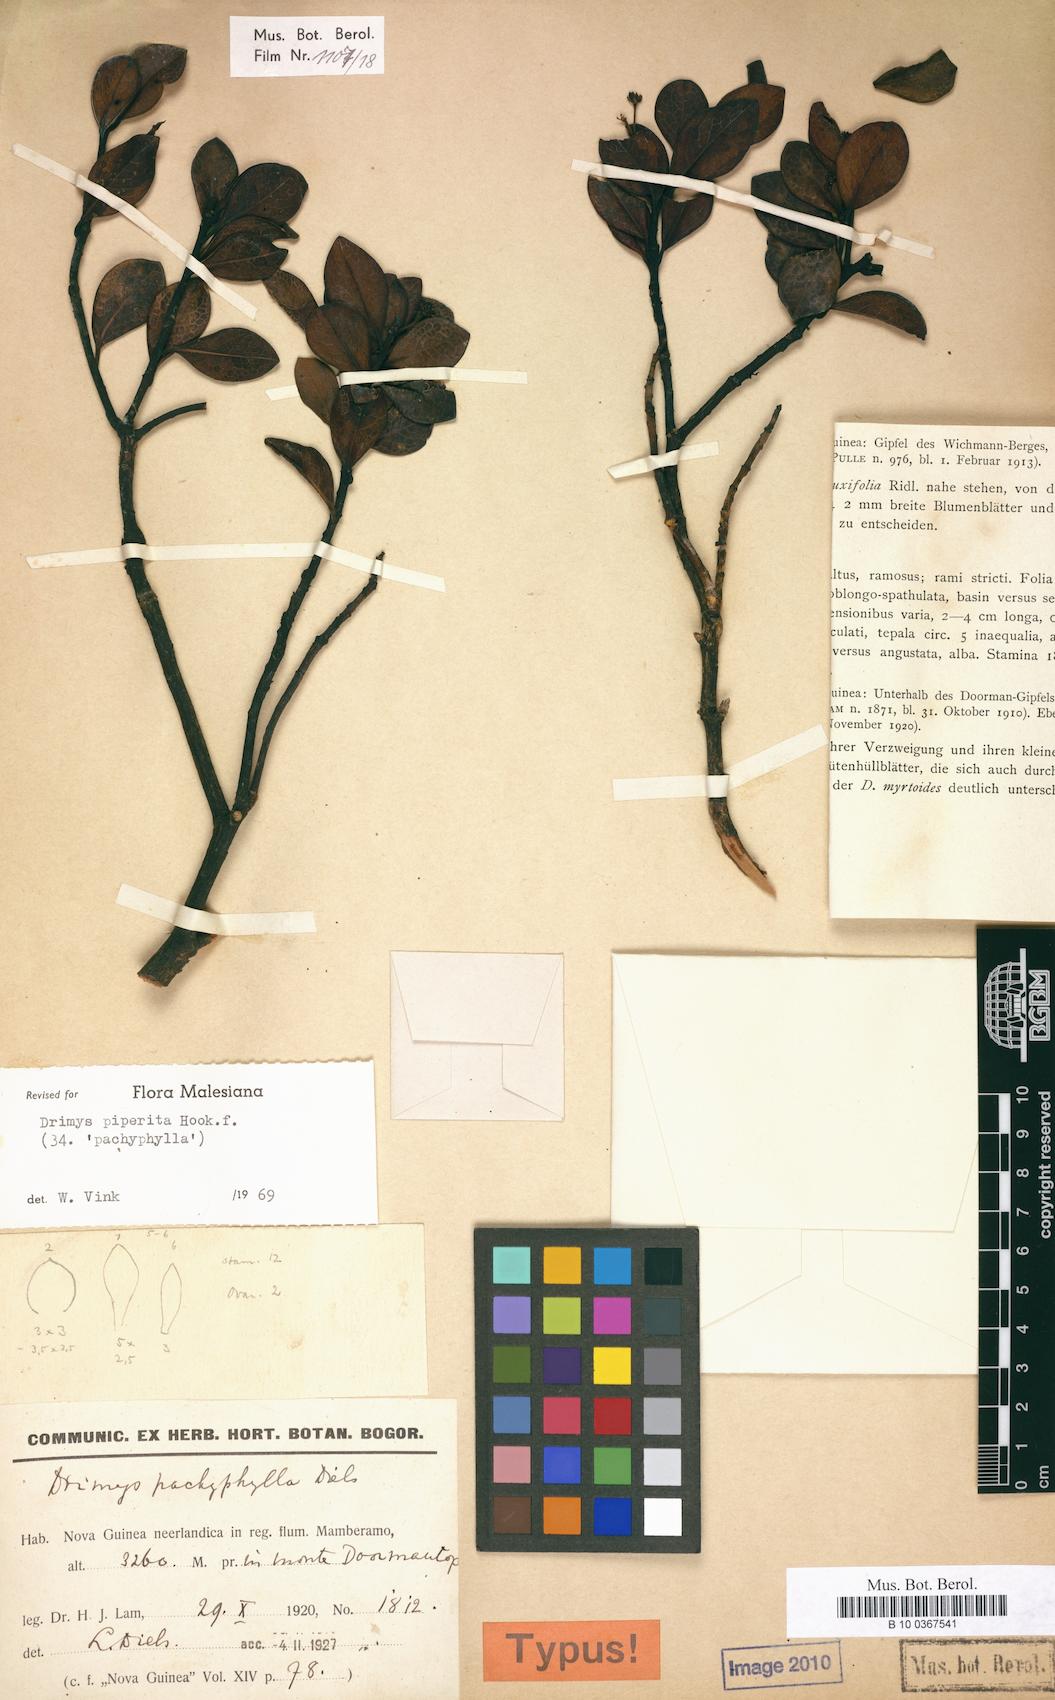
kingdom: Plantae
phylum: Tracheophyta
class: Magnoliopsida
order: Canellales
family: Winteraceae
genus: Drimys
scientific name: Drimys piperita
